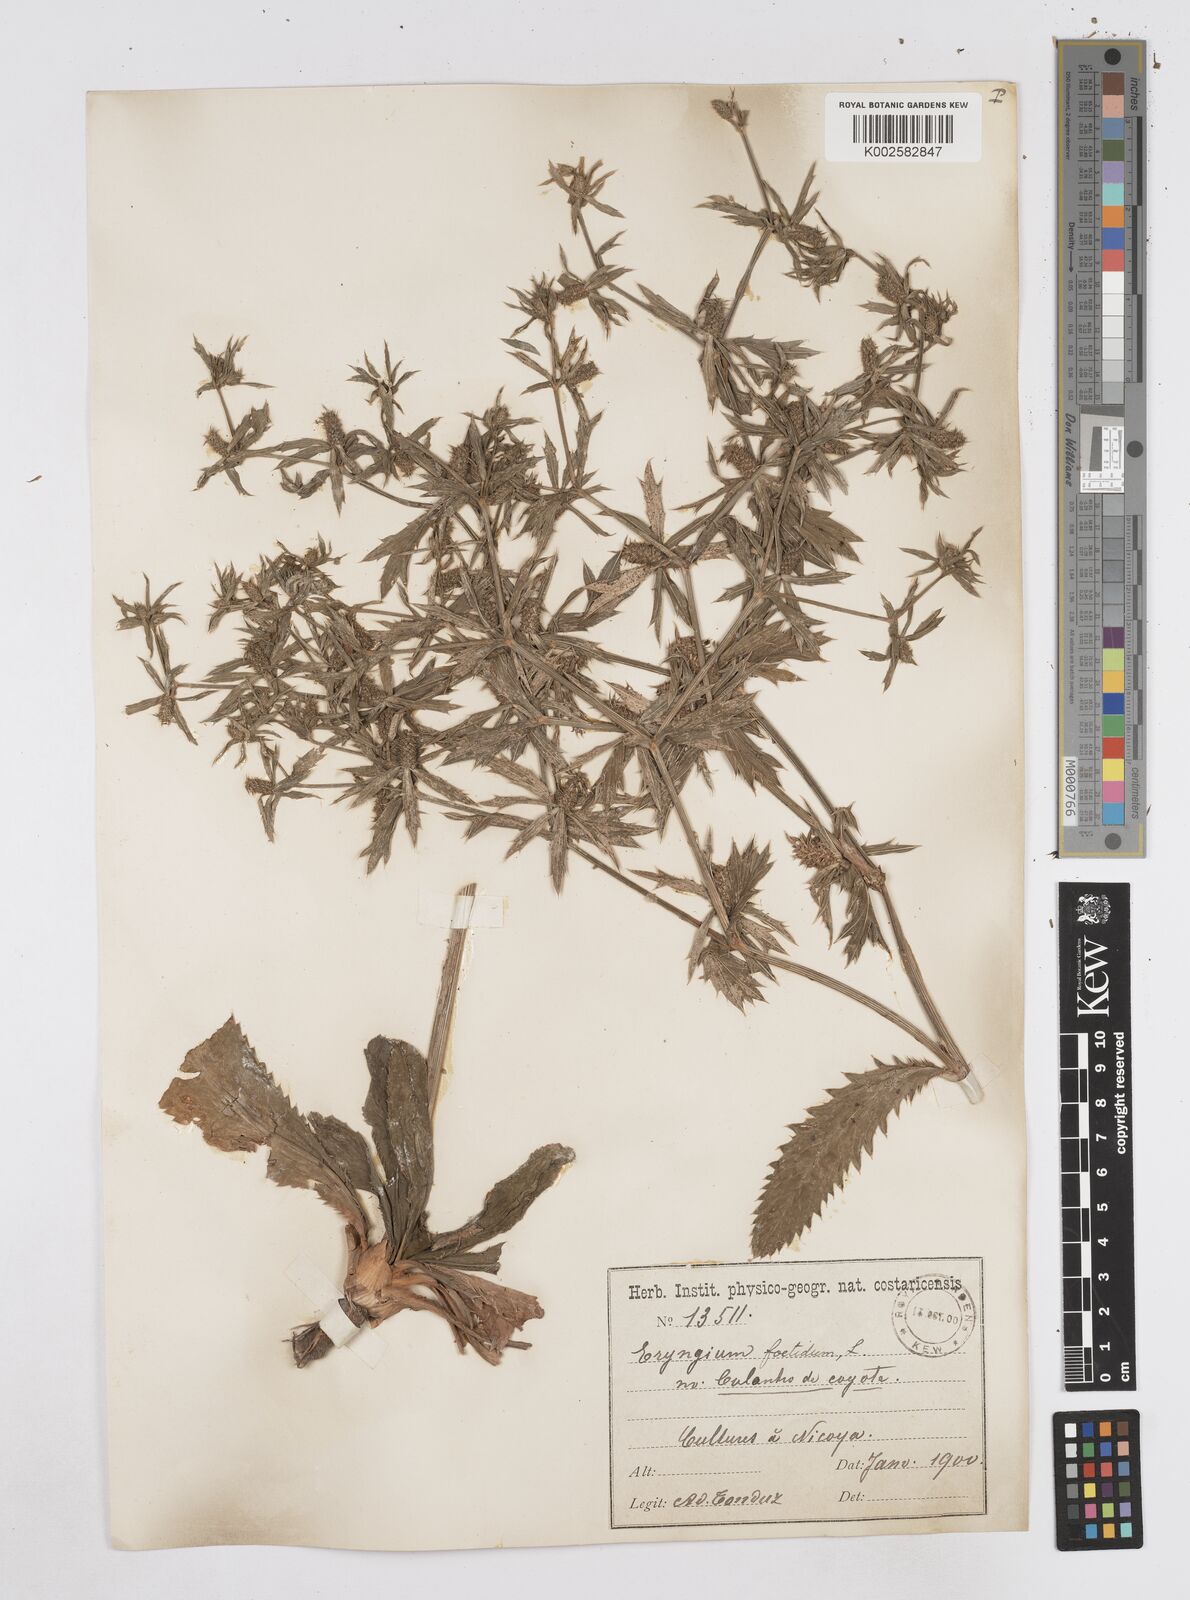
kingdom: Plantae
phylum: Tracheophyta
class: Magnoliopsida
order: Apiales
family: Apiaceae
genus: Eryngium
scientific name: Eryngium foetidum
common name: Fitweed
